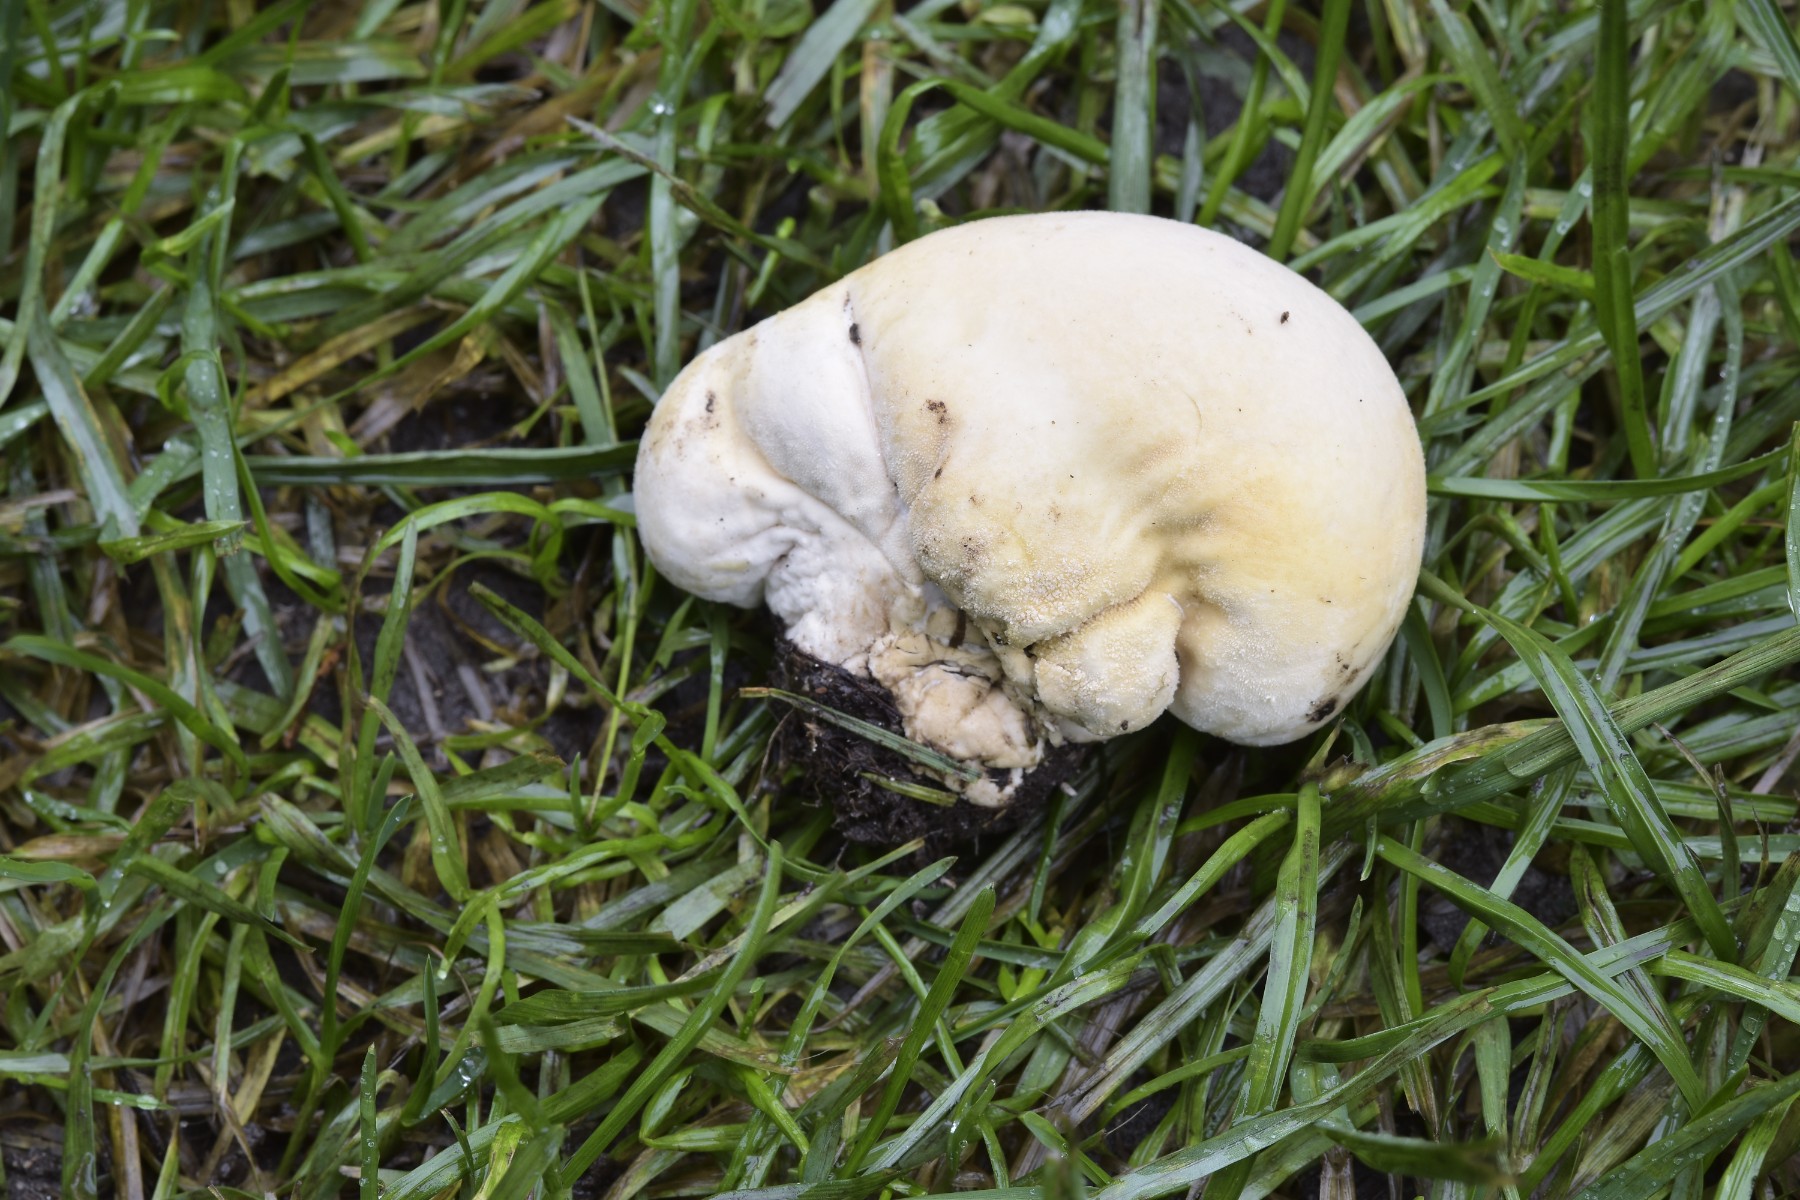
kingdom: Fungi
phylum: Basidiomycota
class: Agaricomycetes
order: Agaricales
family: Lycoperdaceae
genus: Calvatia
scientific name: Calvatia gigantea
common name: kæmpestøvbold
